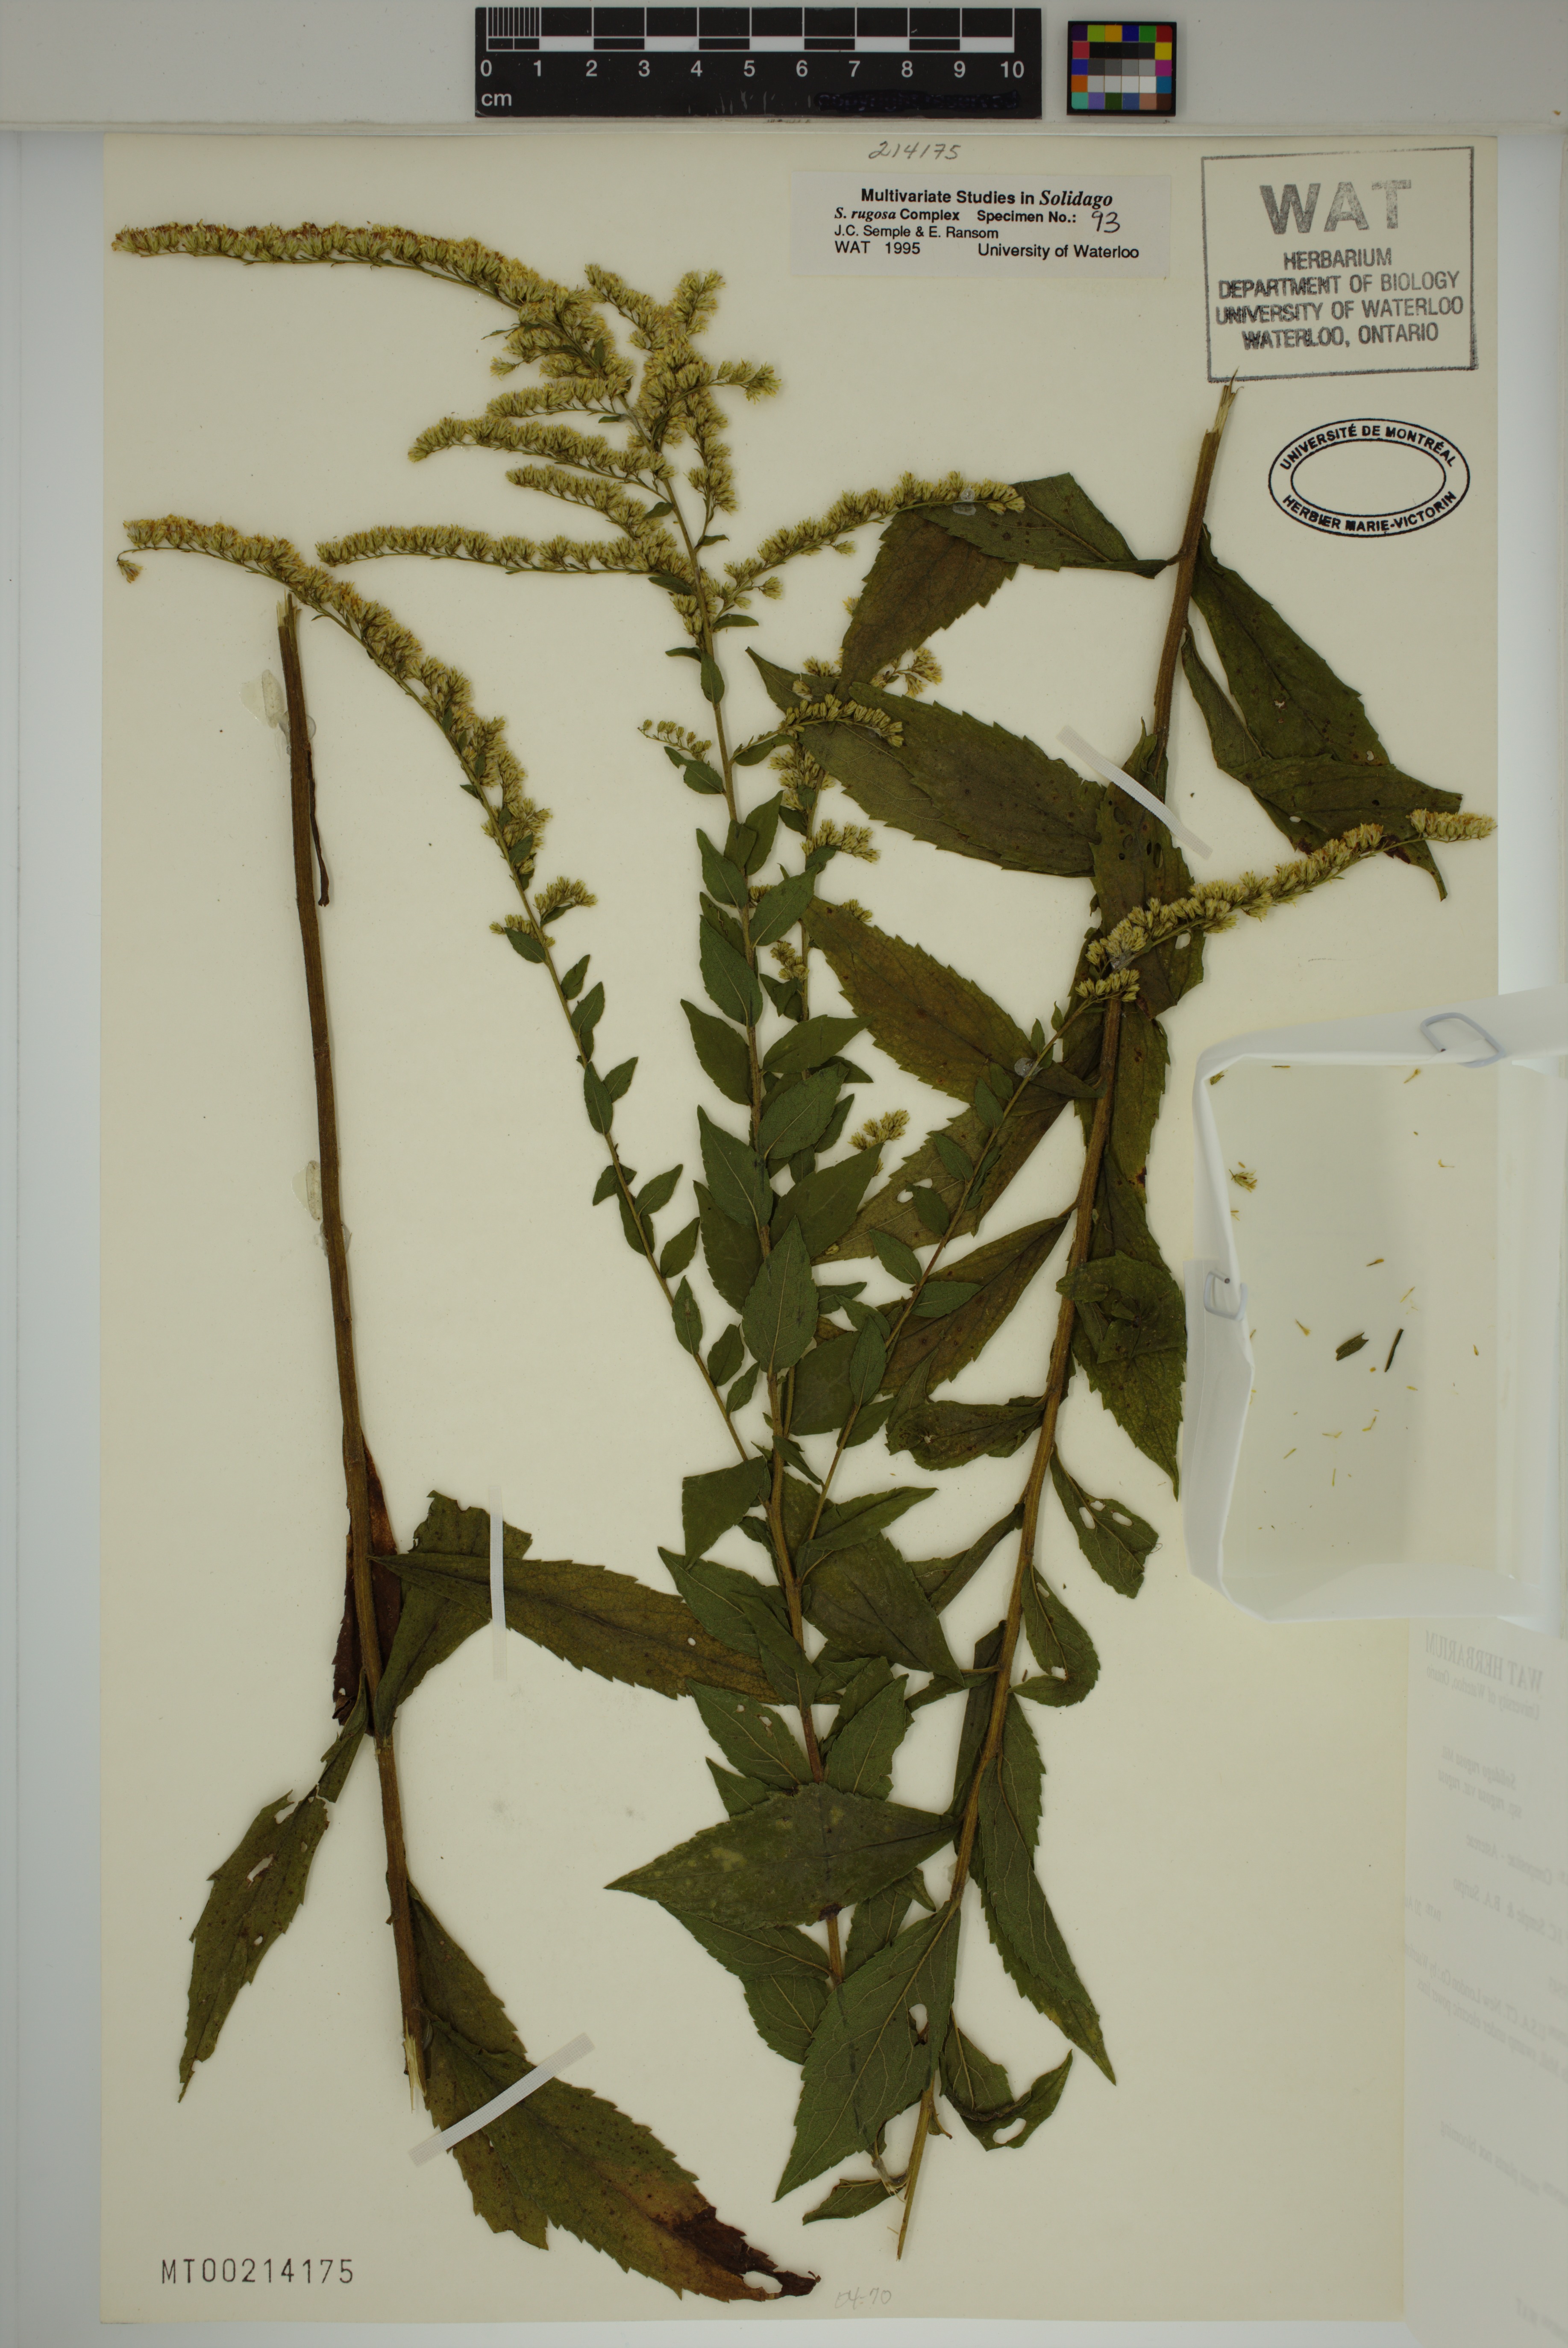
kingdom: Plantae
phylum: Tracheophyta
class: Magnoliopsida
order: Asterales
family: Asteraceae
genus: Solidago
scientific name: Solidago rugosa
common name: Rough-stemmed goldenrod
